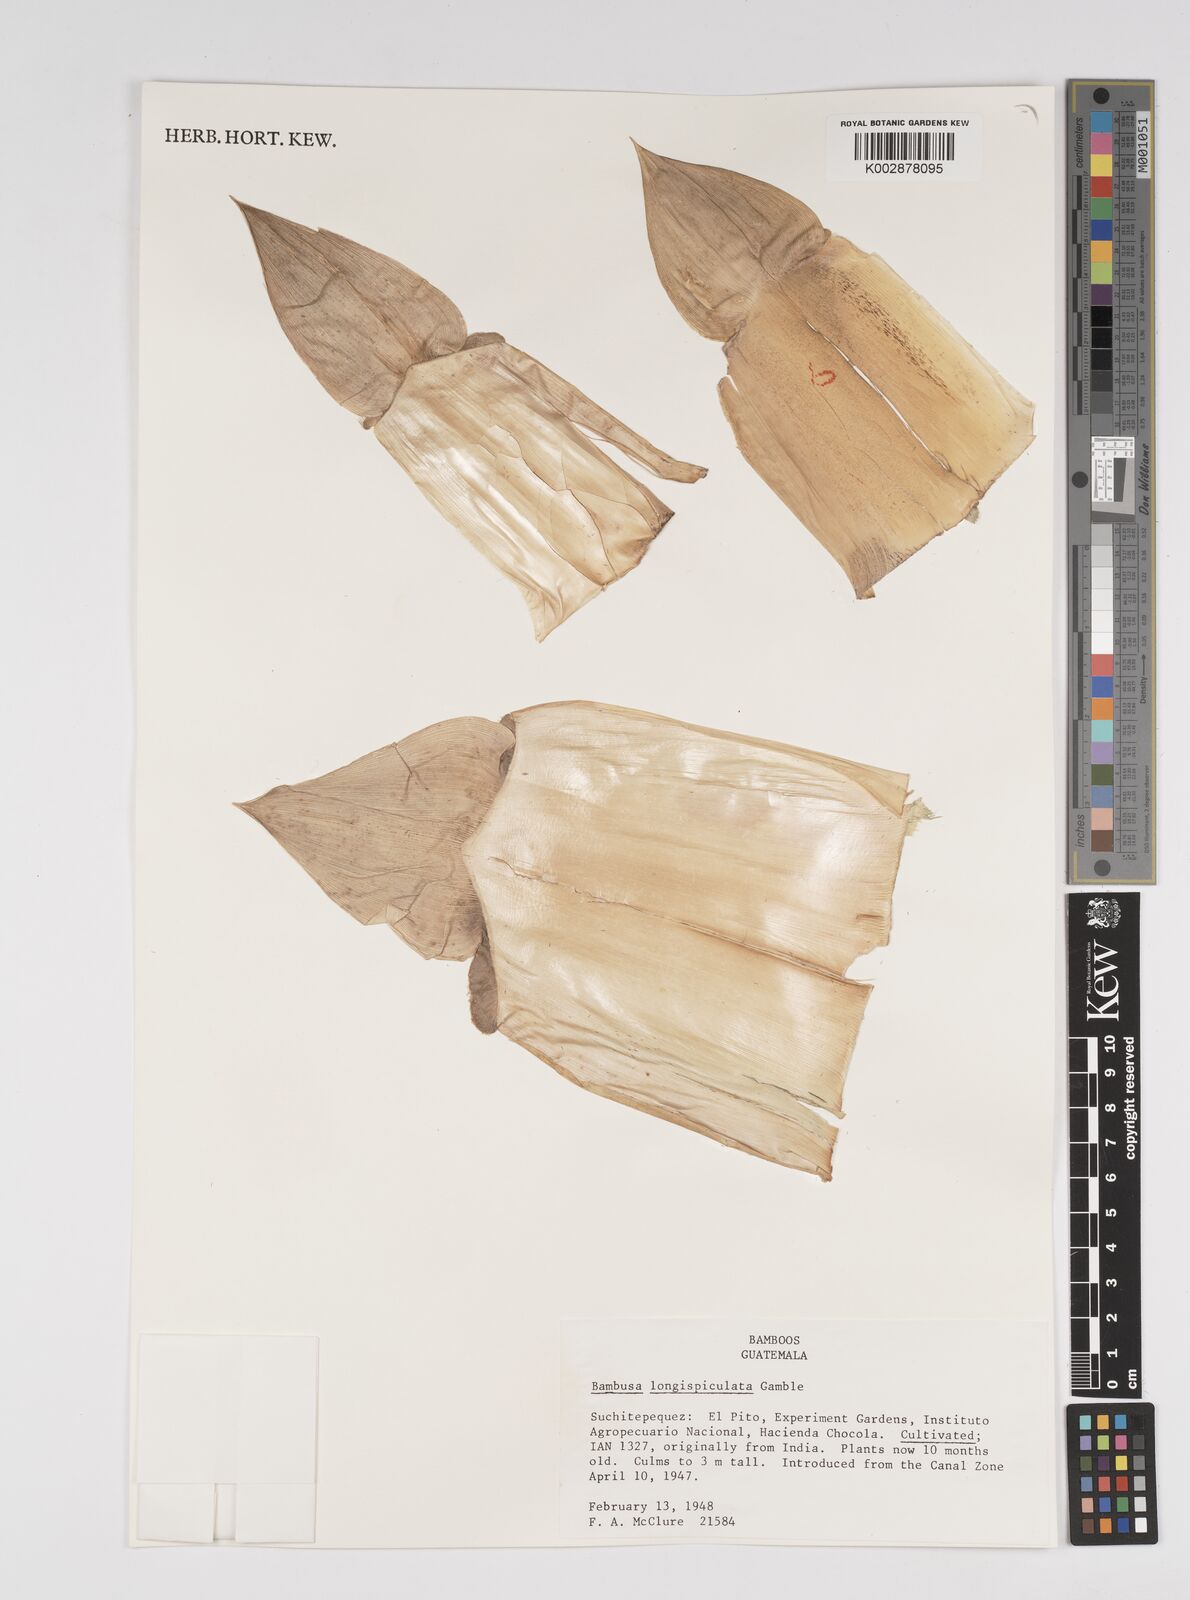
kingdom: Plantae
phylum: Tracheophyta
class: Liliopsida
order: Poales
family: Poaceae
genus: Bambusa
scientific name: Bambusa longispiculata
